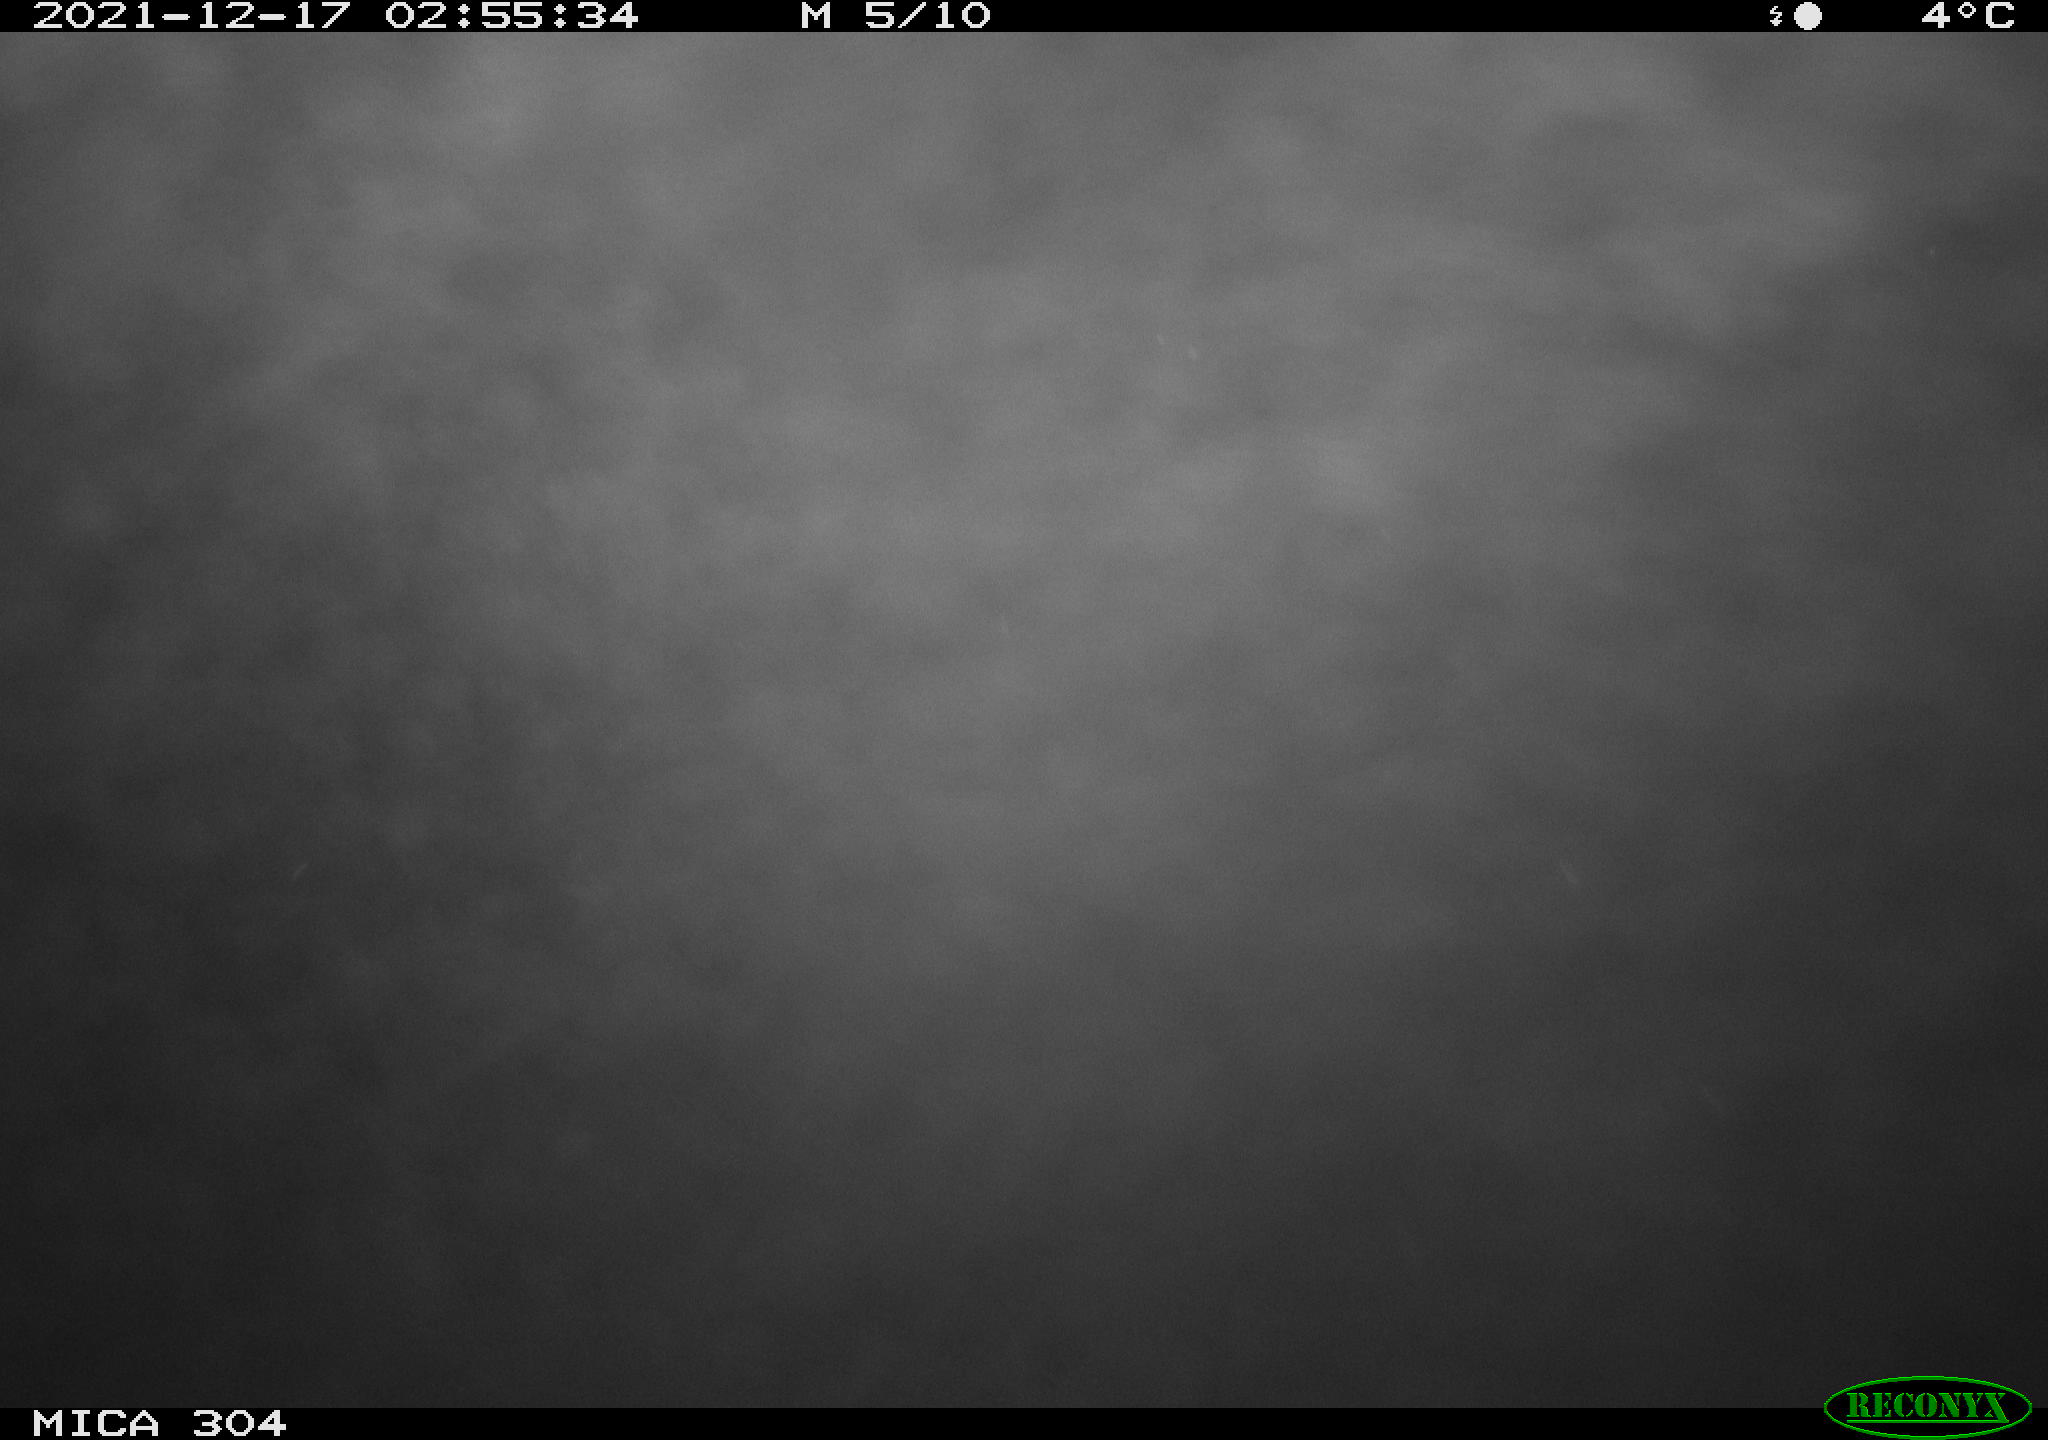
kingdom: Animalia
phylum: Chordata
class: Mammalia
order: Rodentia
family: Cricetidae
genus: Ondatra
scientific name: Ondatra zibethicus
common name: Muskrat
